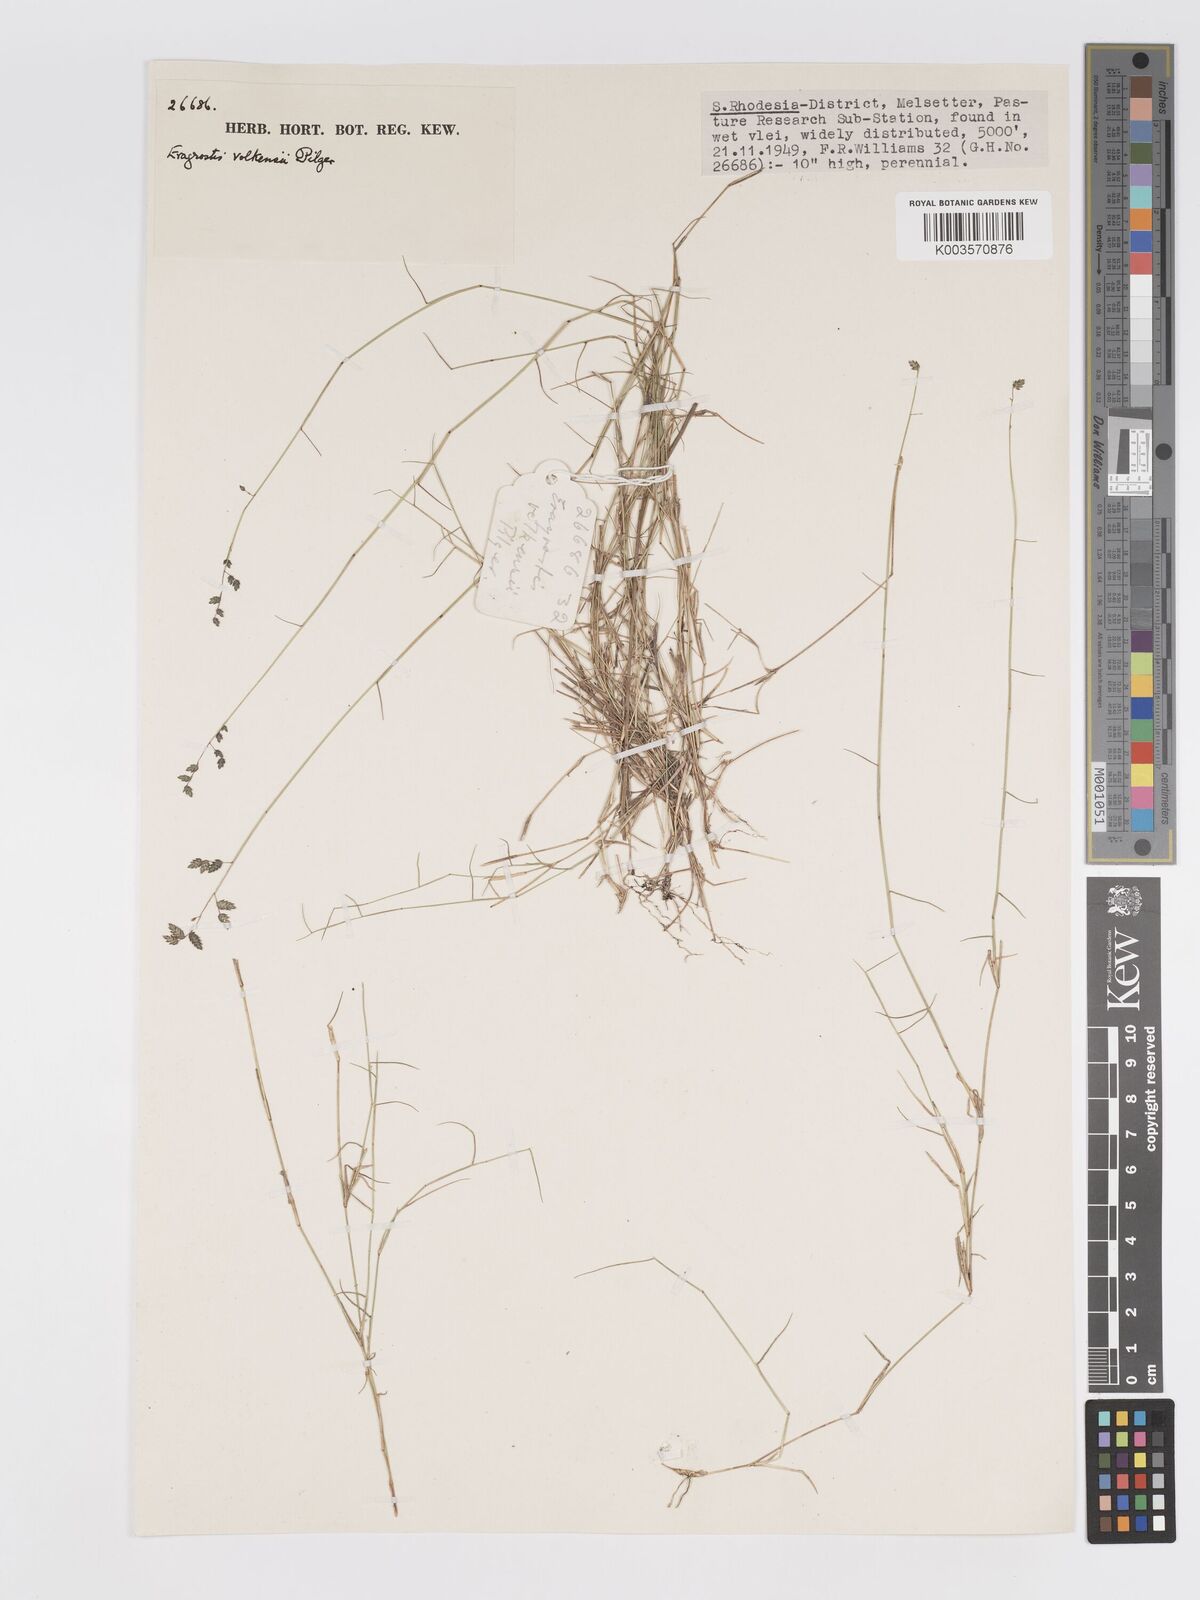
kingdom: Plantae
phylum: Tracheophyta
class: Liliopsida
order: Poales
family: Poaceae
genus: Eragrostis
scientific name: Eragrostis volkensii
